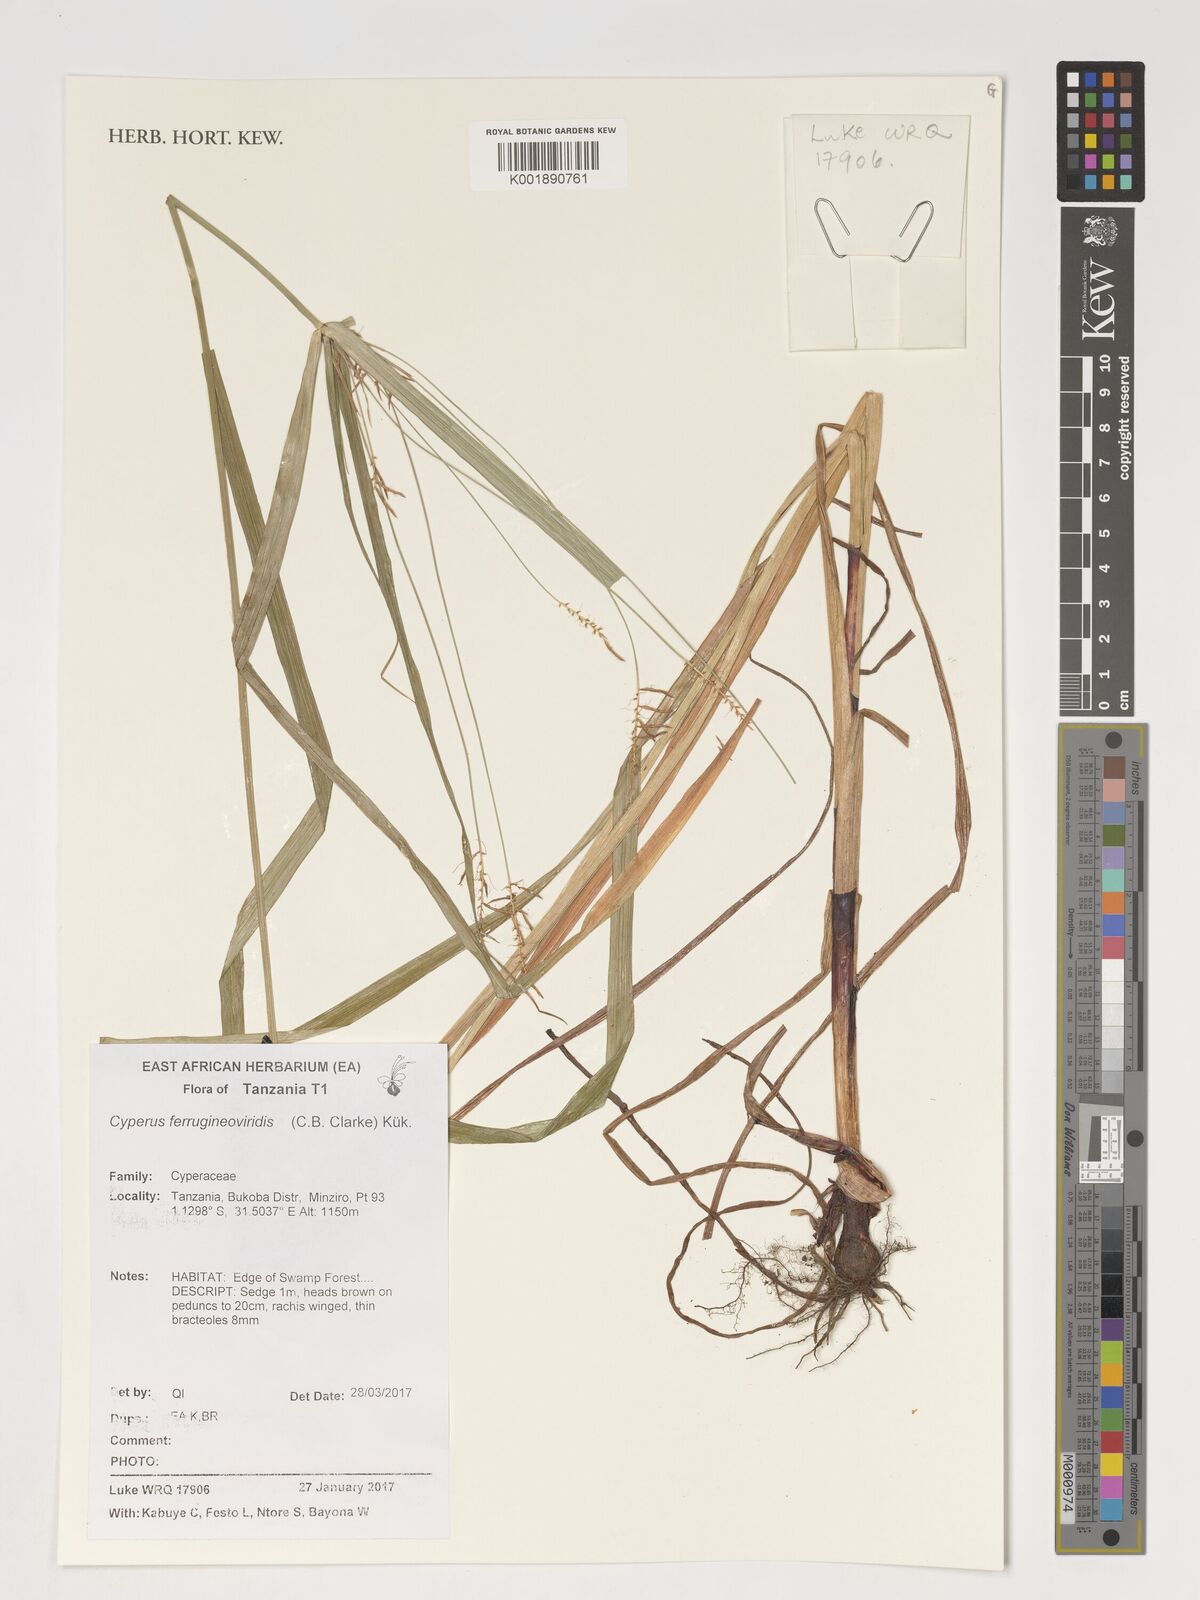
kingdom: Plantae
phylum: Tracheophyta
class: Liliopsida
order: Poales
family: Cyperaceae
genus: Cyperus
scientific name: Cyperus ferrugineoviridis
